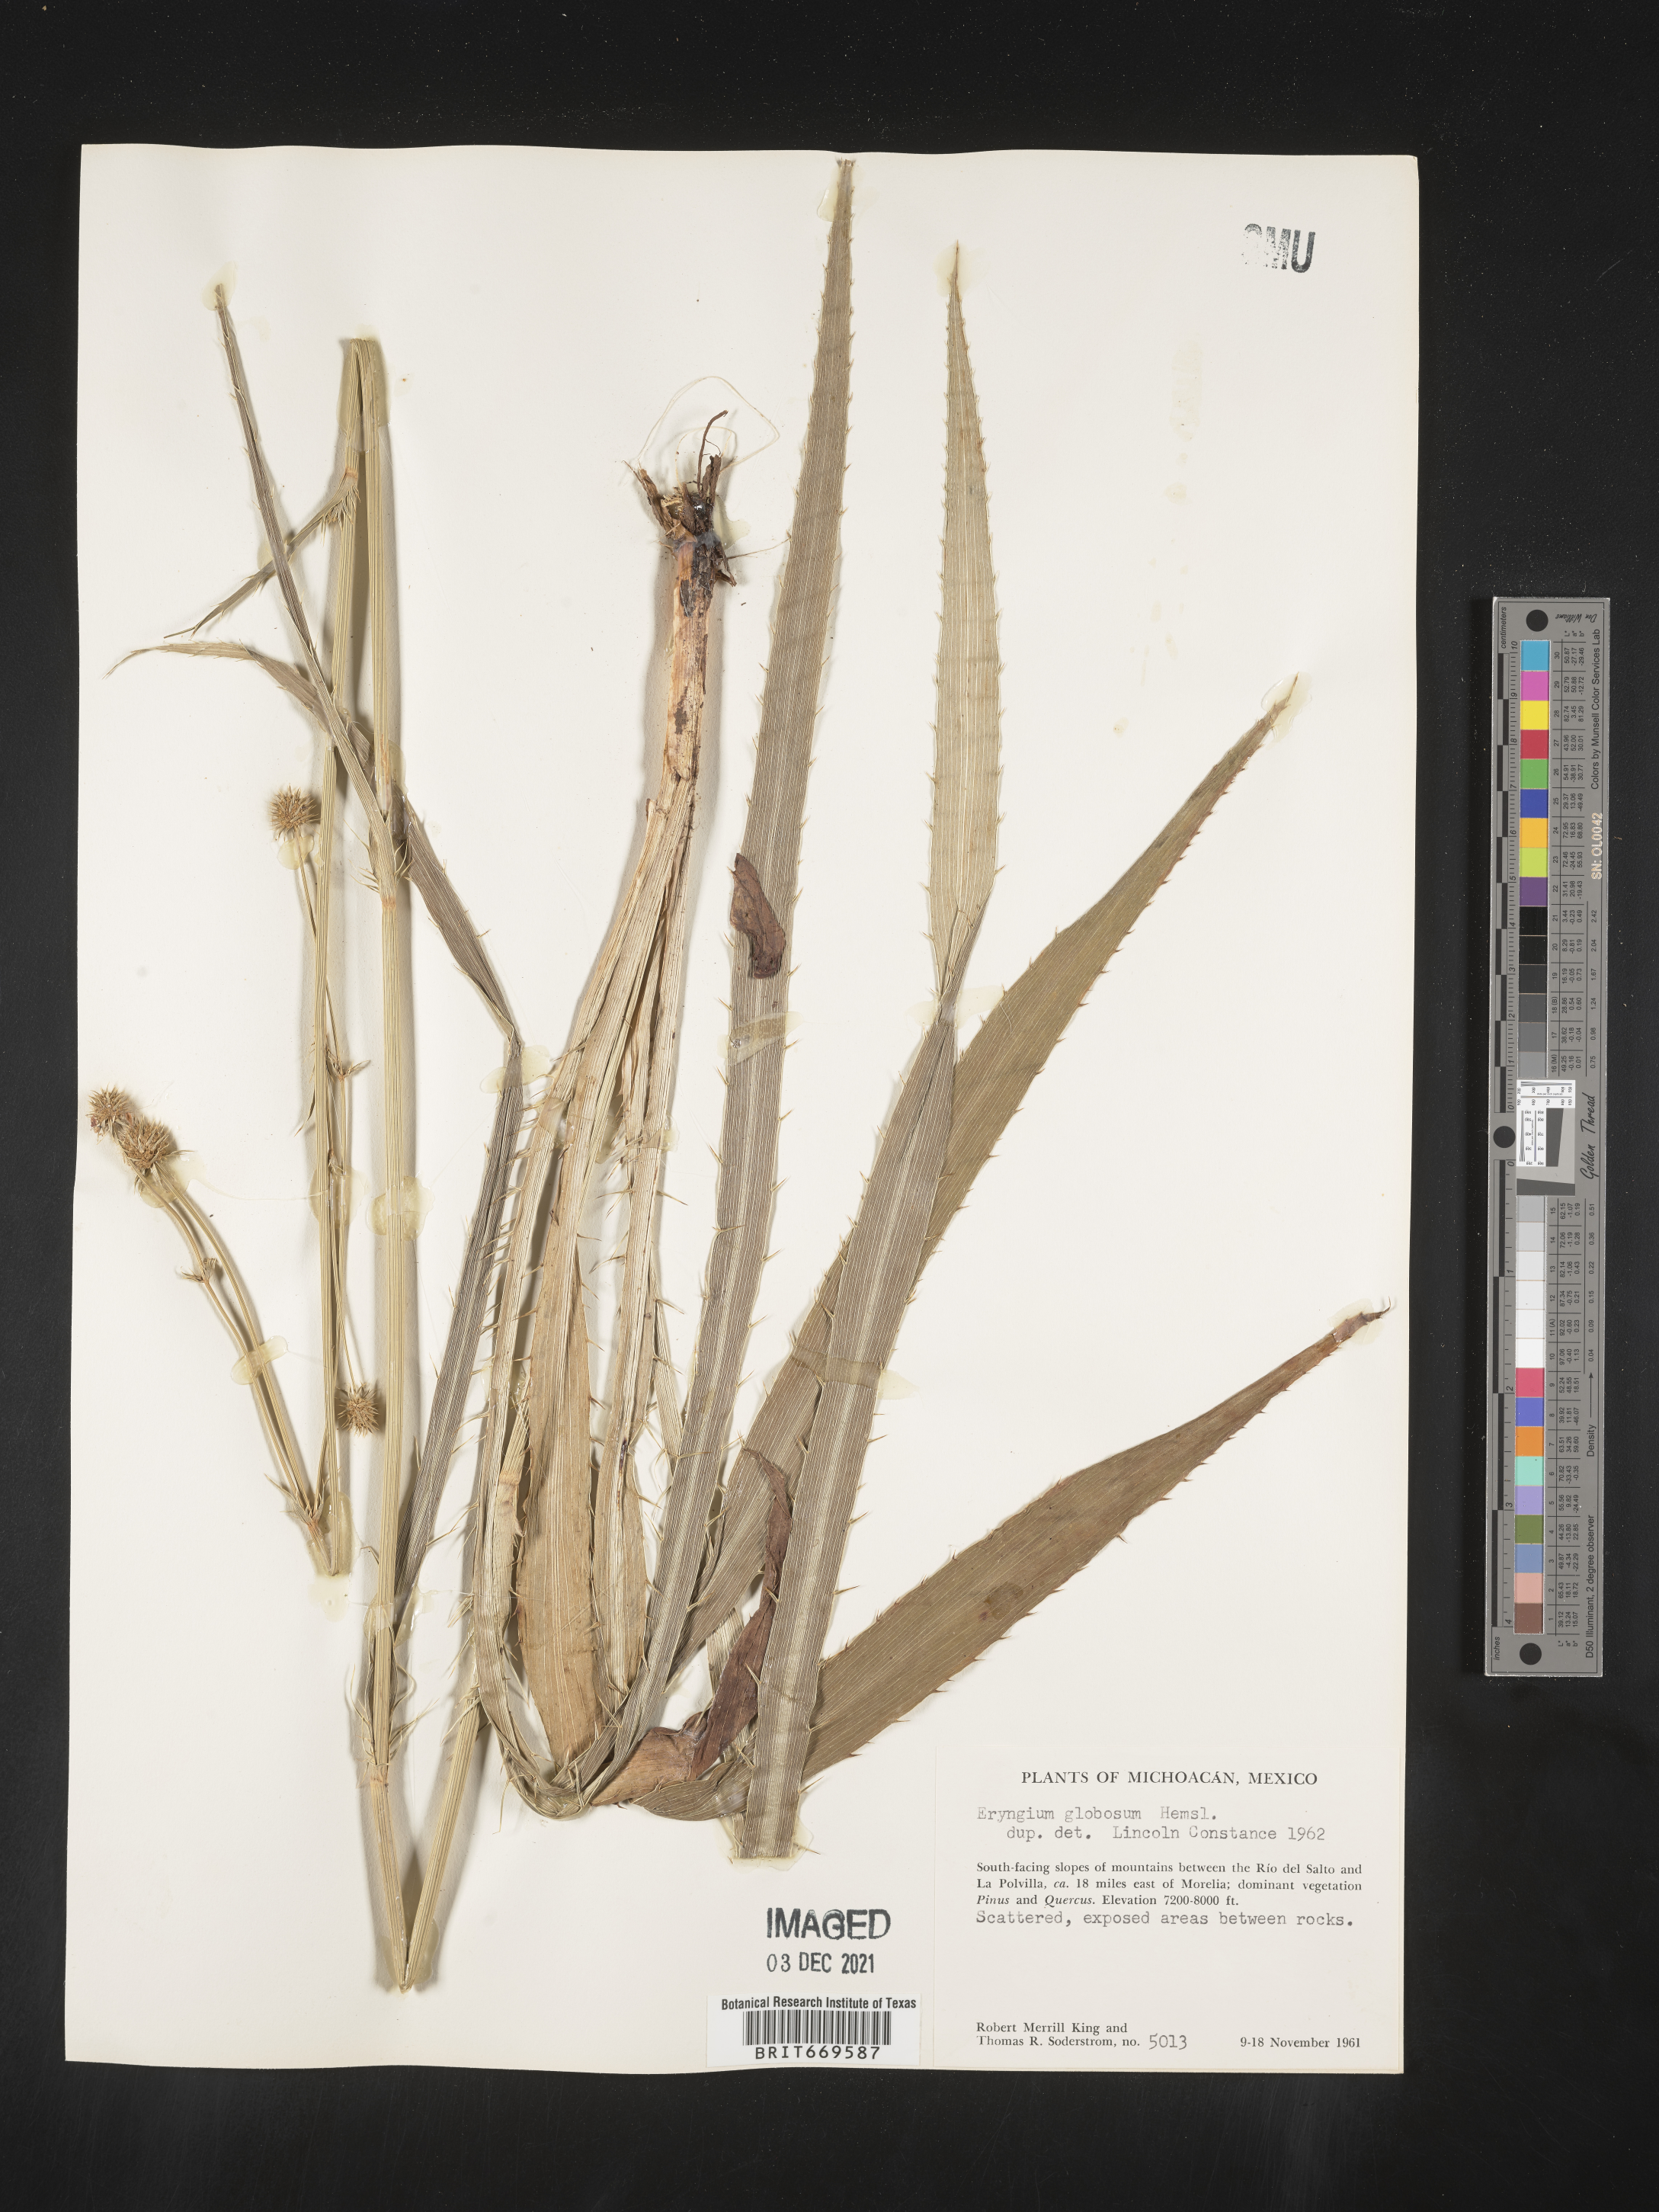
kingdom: Plantae
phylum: Tracheophyta
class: Magnoliopsida
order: Apiales
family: Apiaceae
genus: Eryngium
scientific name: Eryngium
